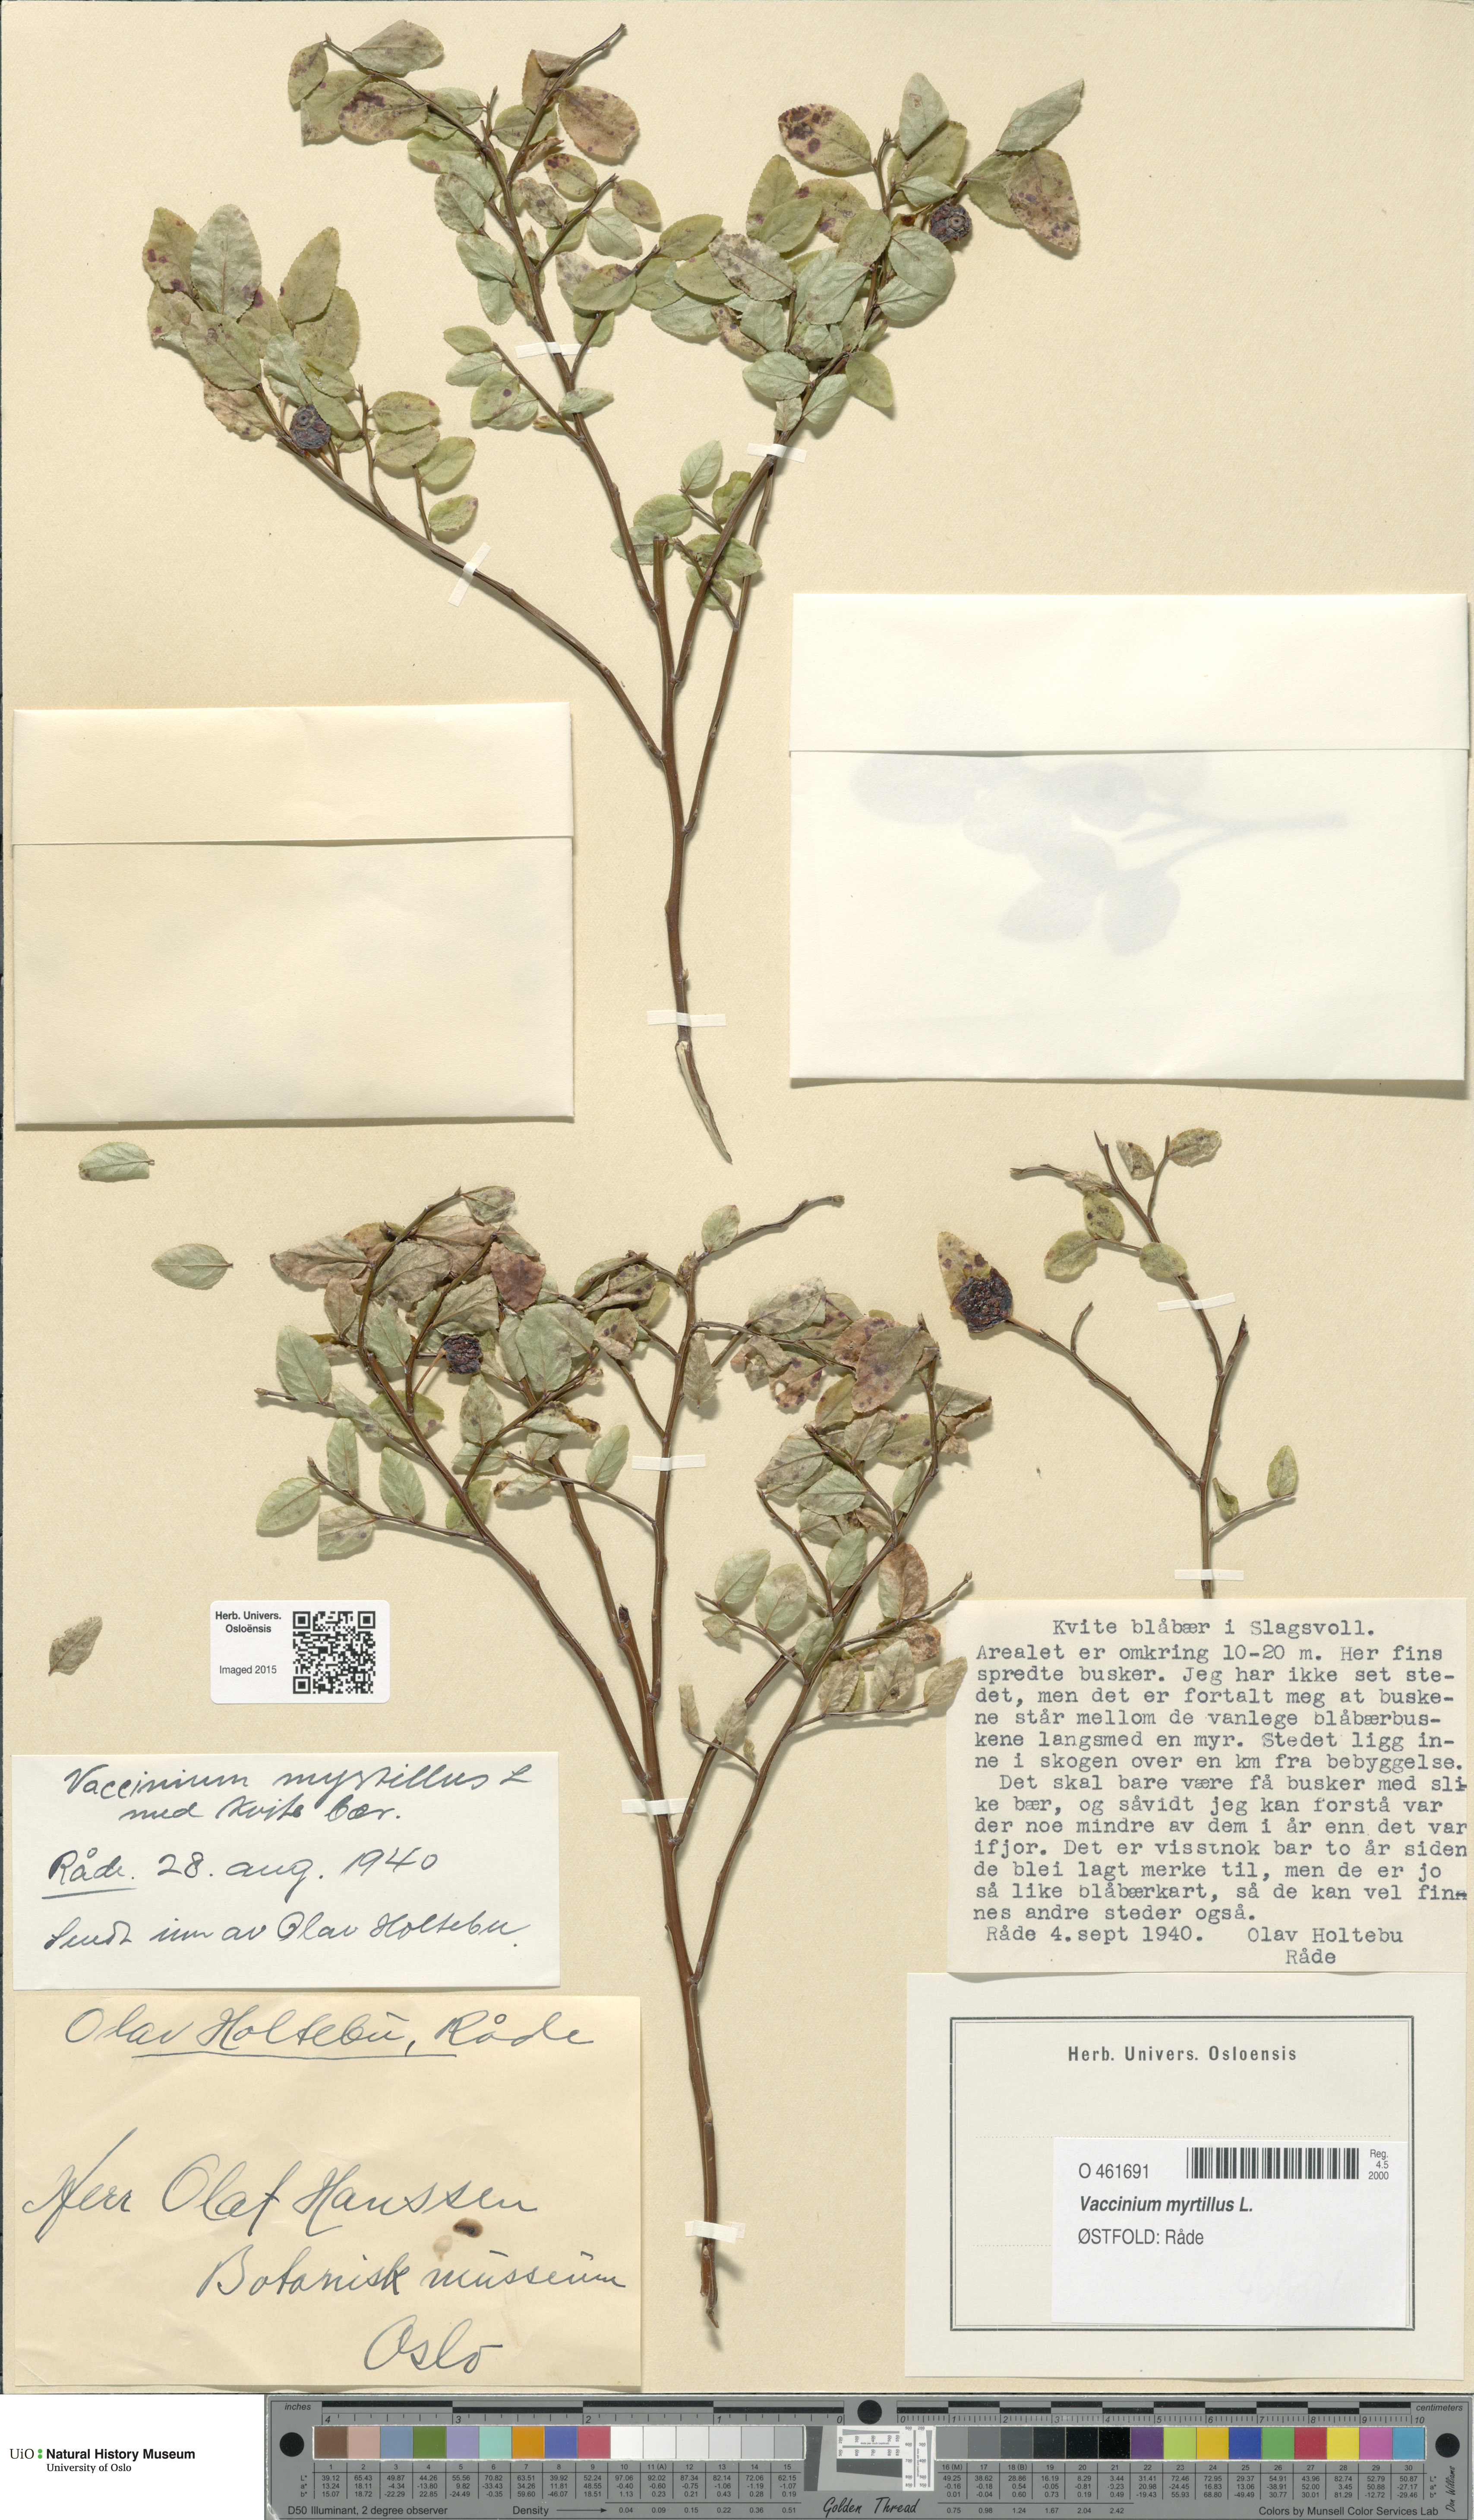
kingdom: Plantae
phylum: Tracheophyta
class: Magnoliopsida
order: Ericales
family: Ericaceae
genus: Vaccinium
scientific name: Vaccinium myrtillus
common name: Bilberry
